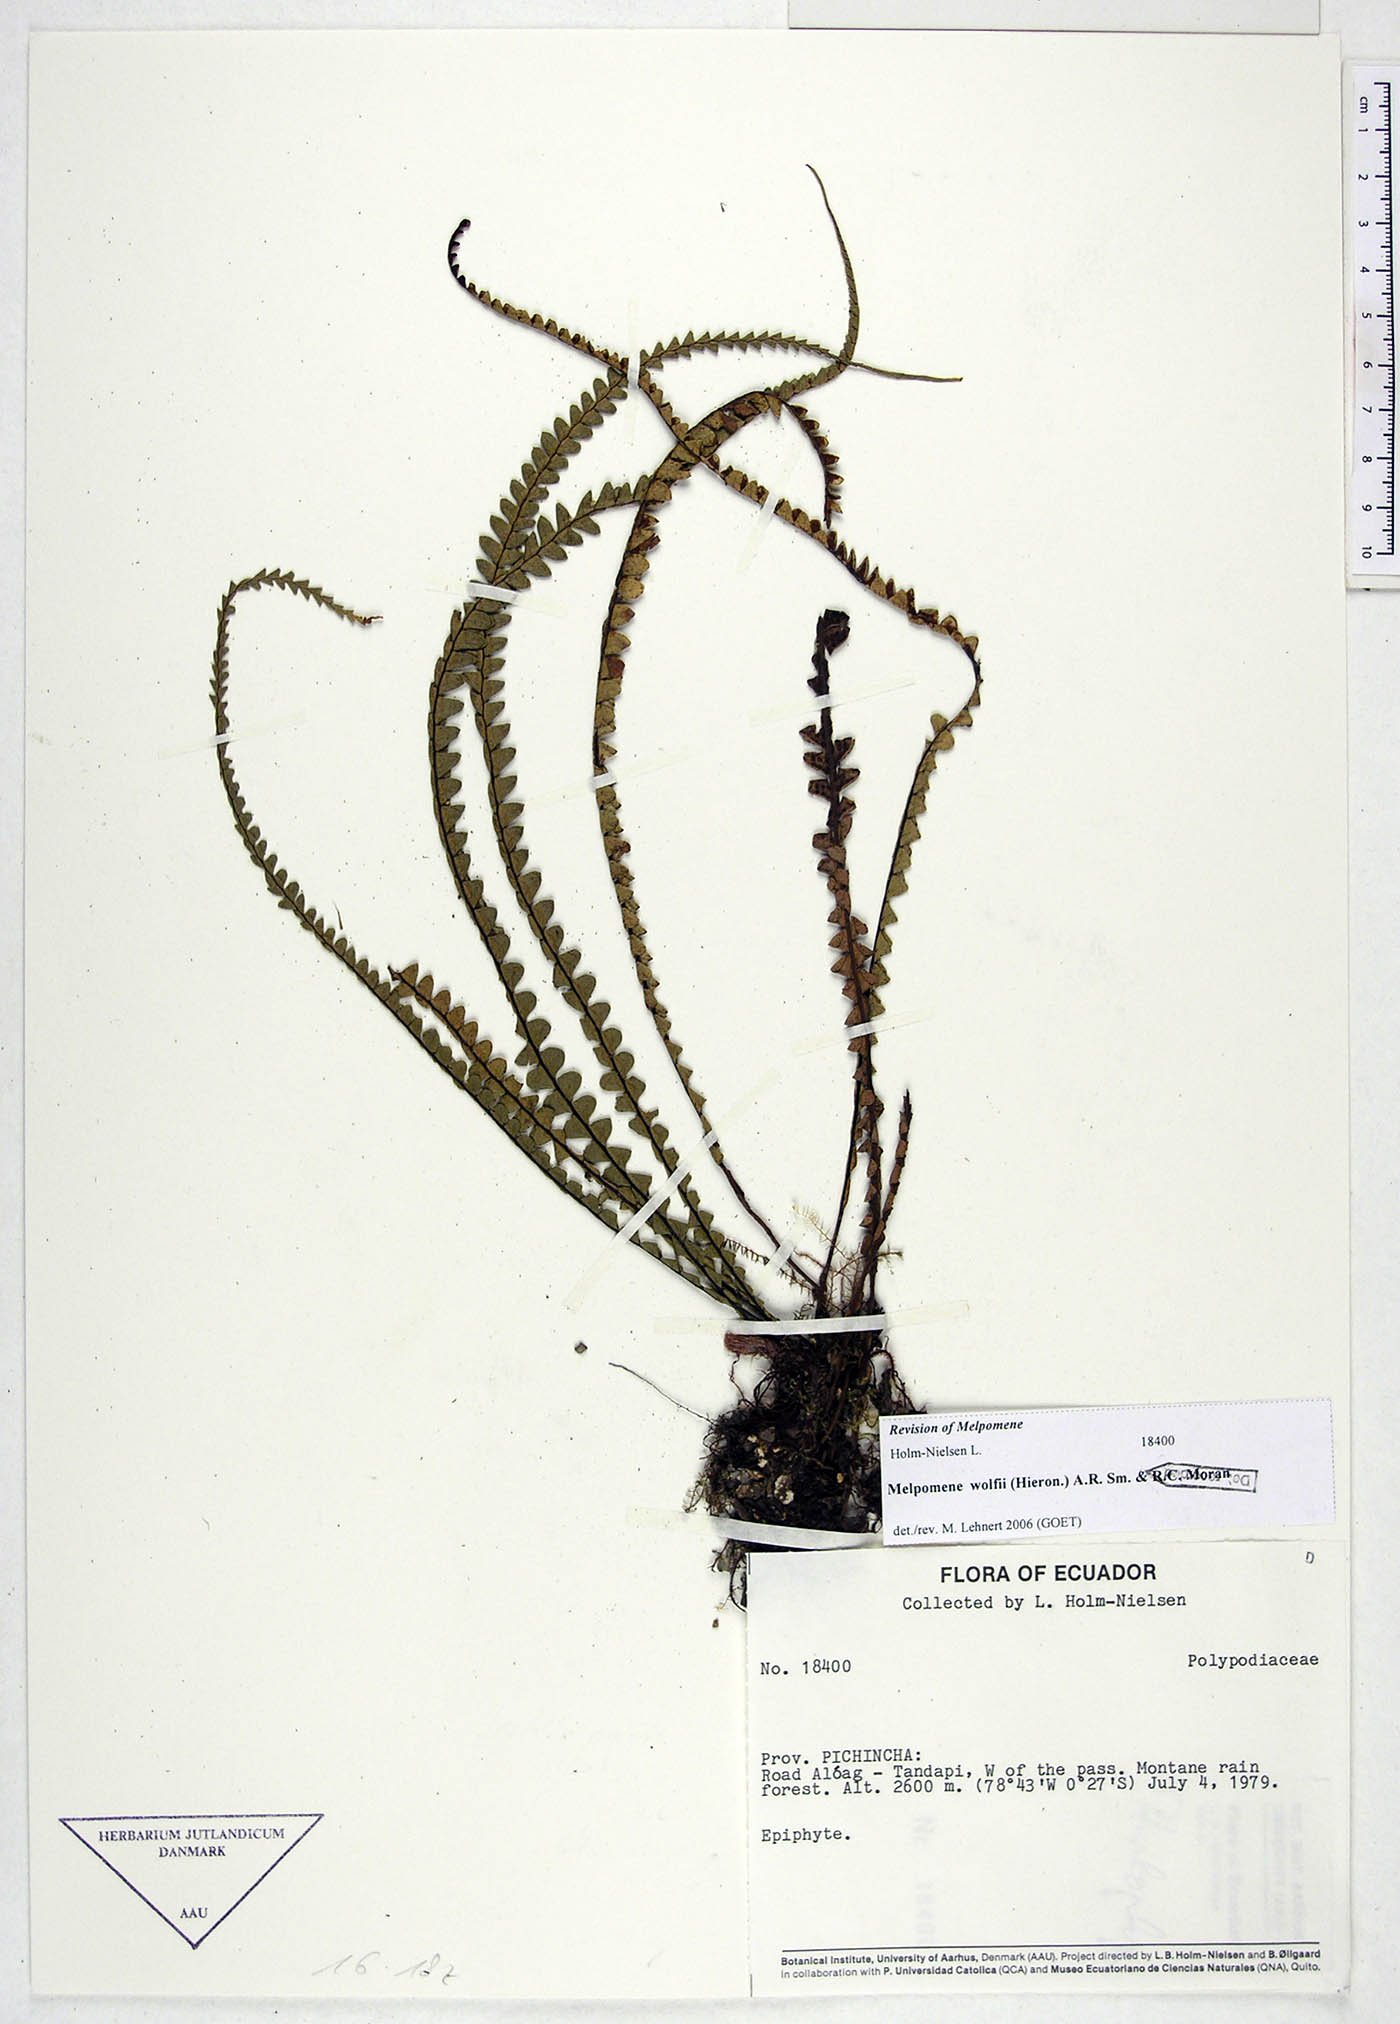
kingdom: Plantae
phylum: Tracheophyta
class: Polypodiopsida
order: Polypodiales
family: Polypodiaceae
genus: Melpomene
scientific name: Melpomene wolfii
